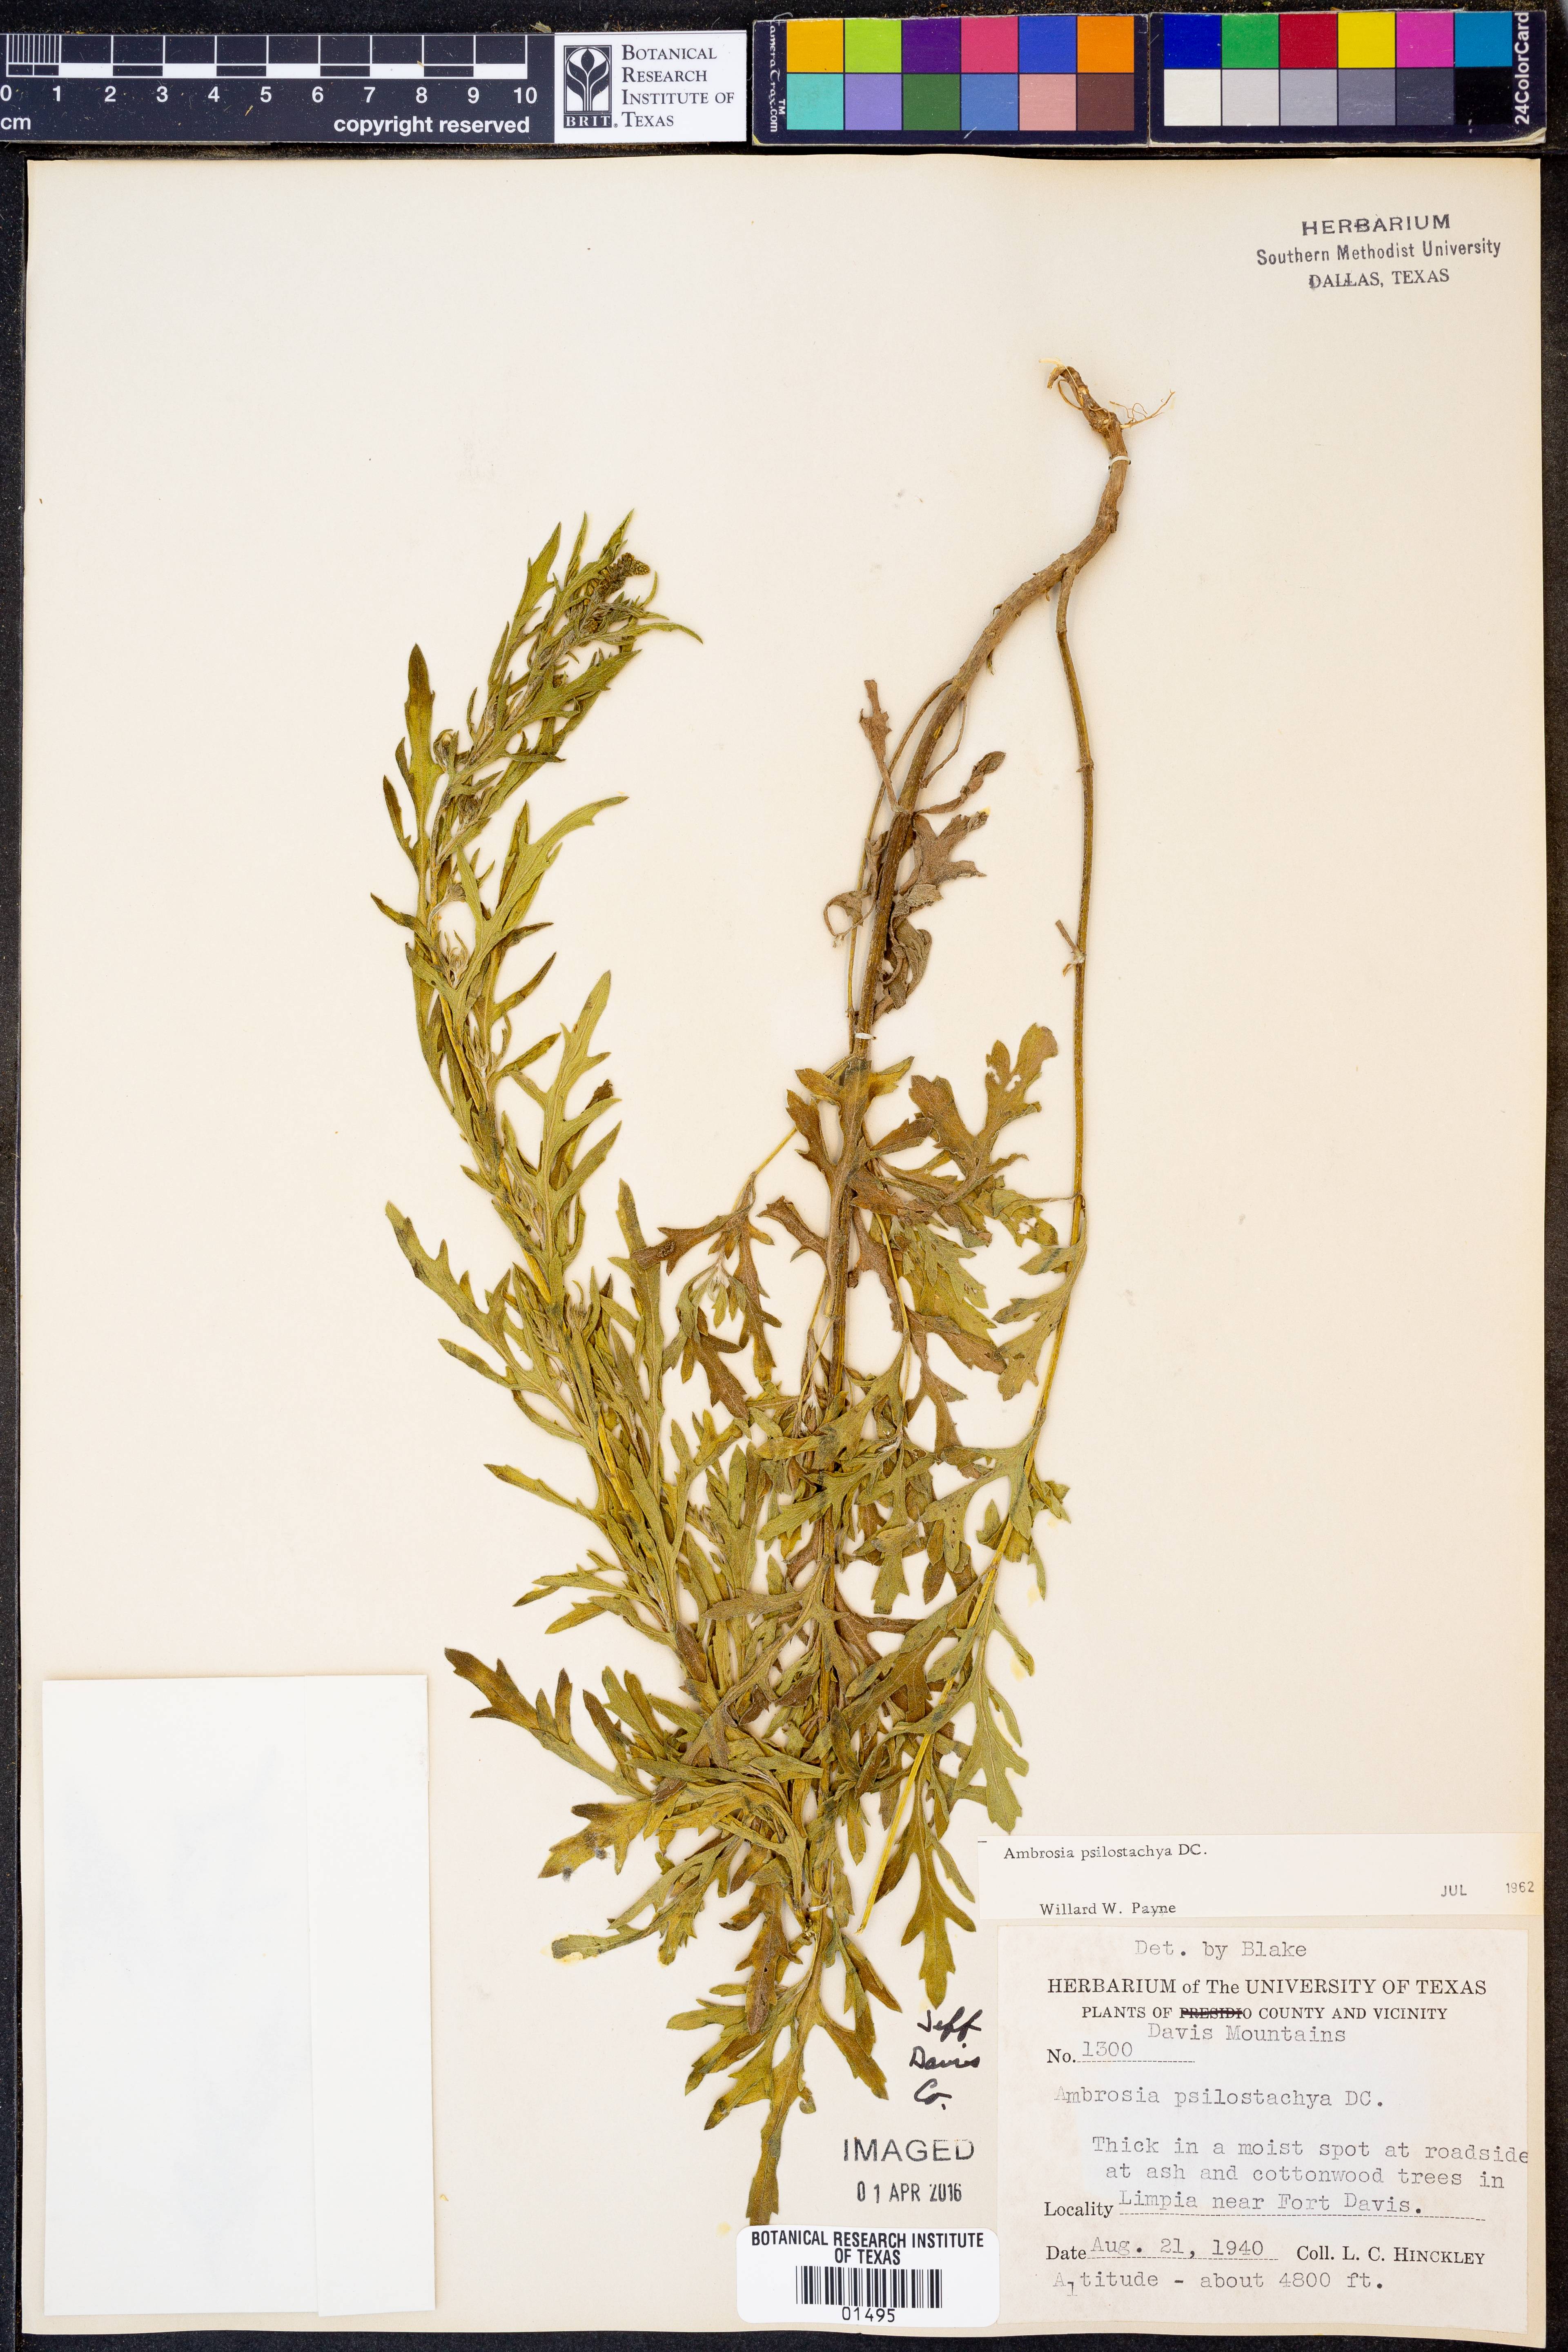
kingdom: Plantae
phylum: Tracheophyta
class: Magnoliopsida
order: Asterales
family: Asteraceae
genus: Ambrosia
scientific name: Ambrosia psilostachya
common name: Perennial ragweed
